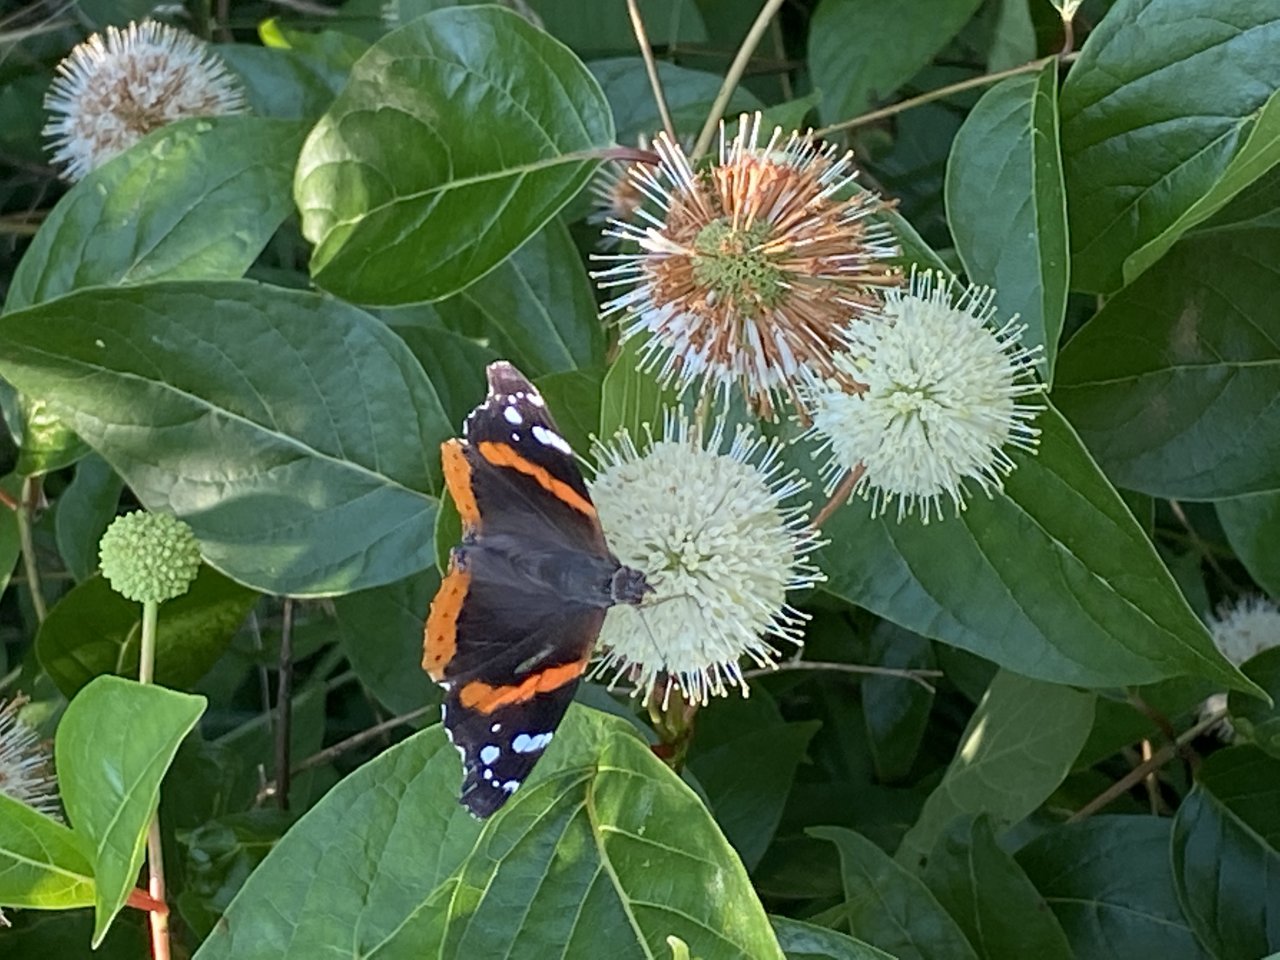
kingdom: Animalia
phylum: Arthropoda
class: Insecta
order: Lepidoptera
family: Nymphalidae
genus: Vanessa
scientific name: Vanessa atalanta
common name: Red Admiral
